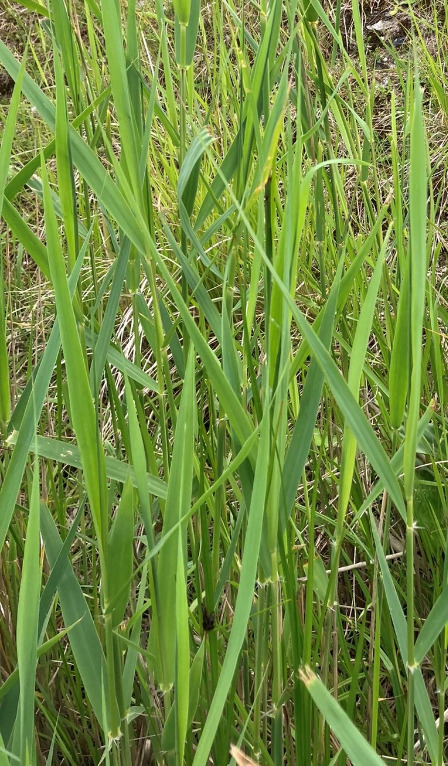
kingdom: Plantae
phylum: Tracheophyta
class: Liliopsida
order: Poales
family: Poaceae
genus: Phragmites
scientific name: Phragmites australis
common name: Tagrør
